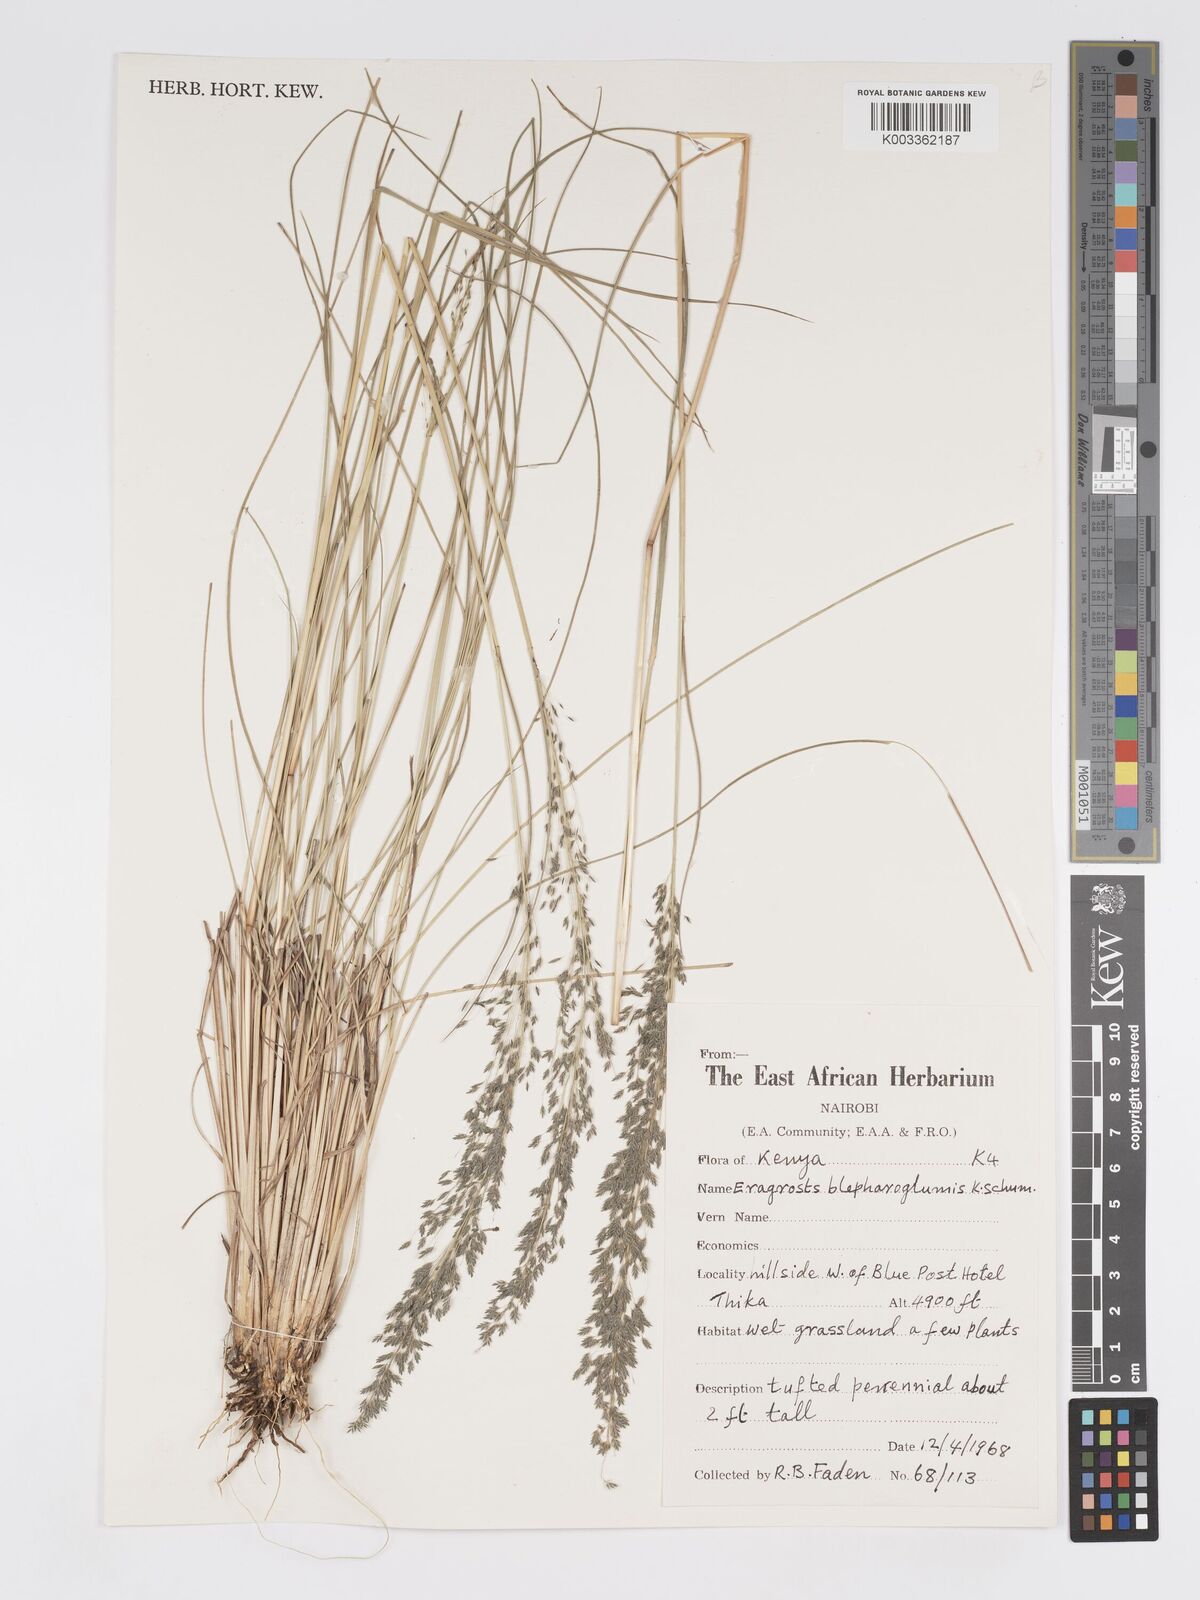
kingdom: Plantae
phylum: Tracheophyta
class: Liliopsida
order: Poales
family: Poaceae
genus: Eragrostis
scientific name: Eragrostis olivacea
